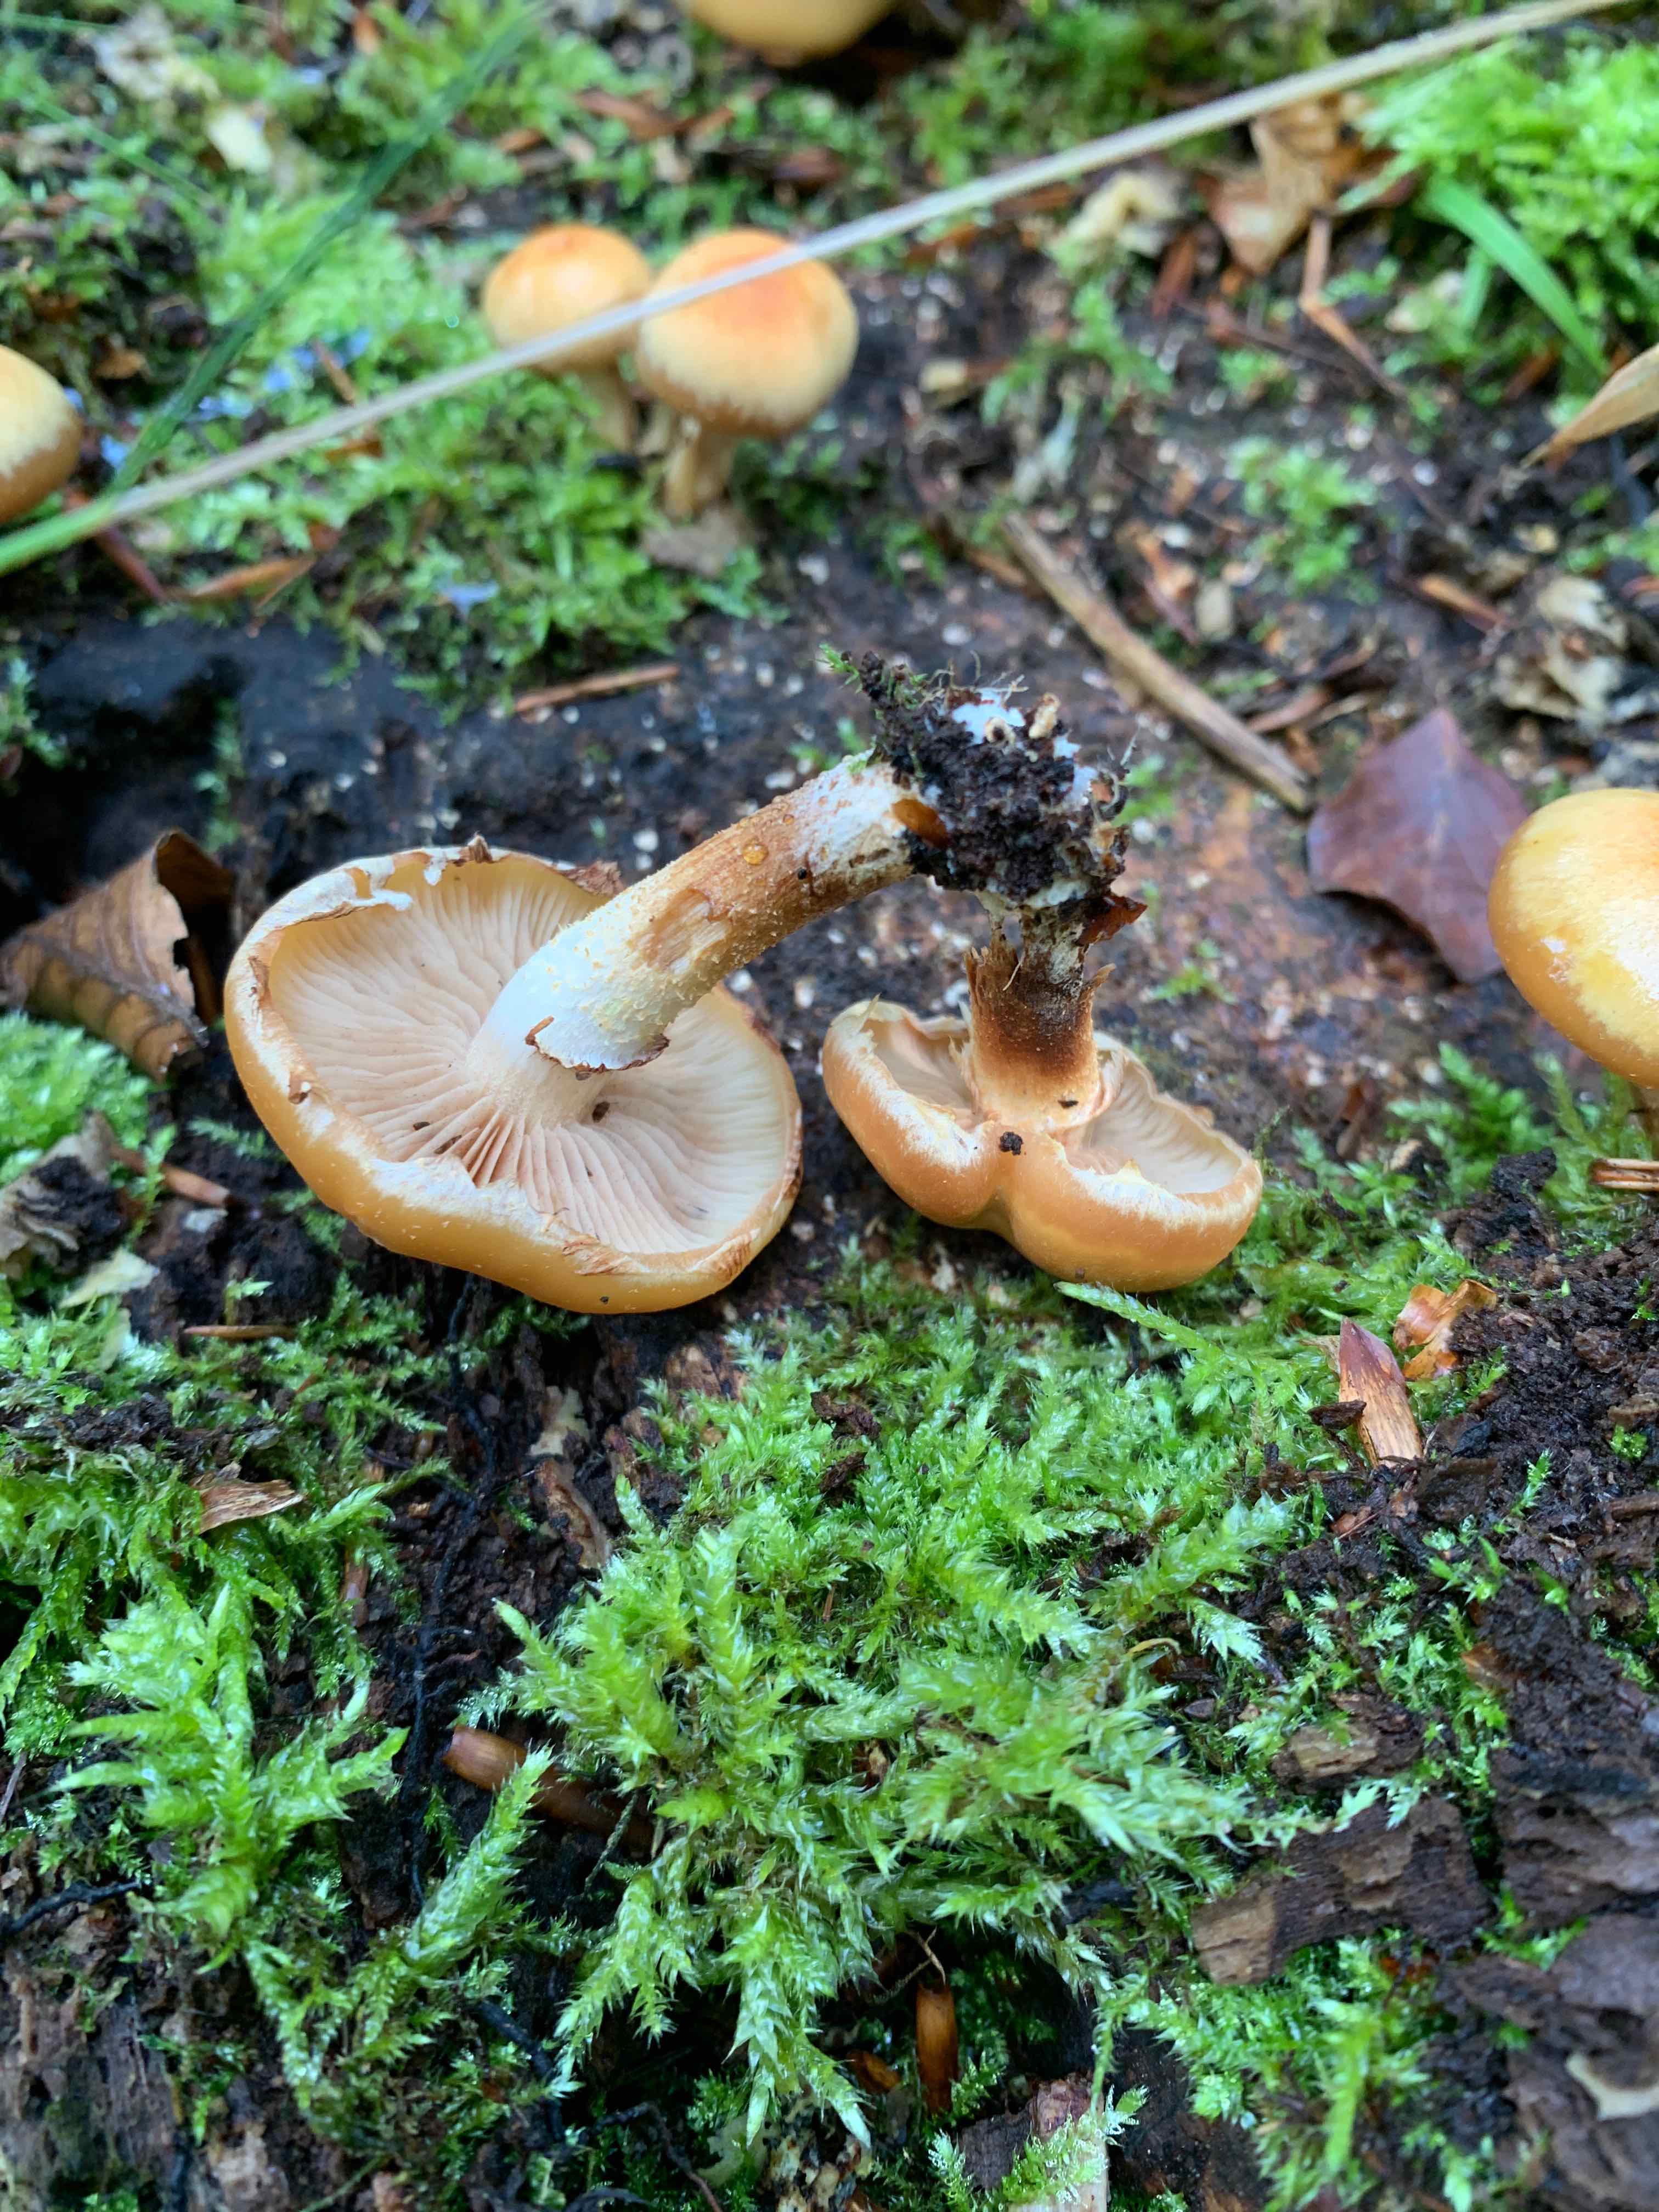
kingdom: Fungi
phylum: Basidiomycota
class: Agaricomycetes
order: Agaricales
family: Strophariaceae
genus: Kuehneromyces
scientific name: Kuehneromyces mutabilis
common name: foranderlig skælhat
